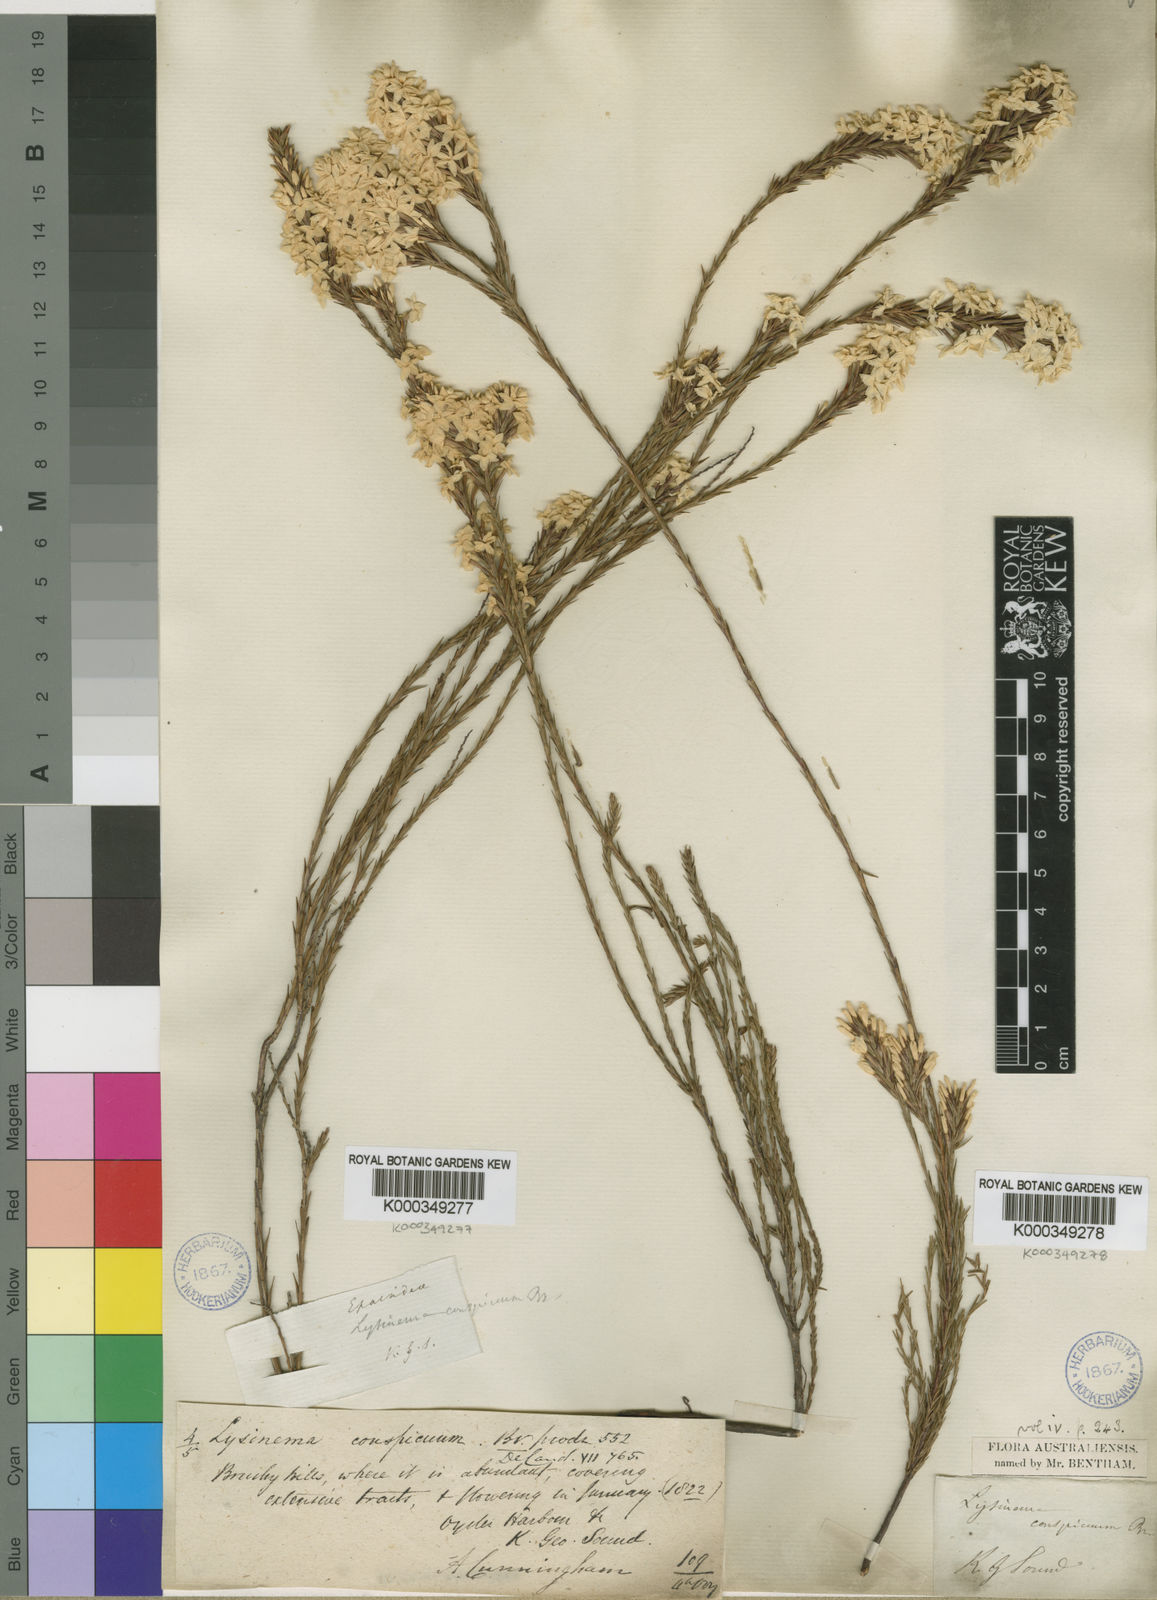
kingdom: Plantae
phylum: Tracheophyta
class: Magnoliopsida
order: Ericales
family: Ericaceae
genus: Lysinema
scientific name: Lysinema conspicuum
